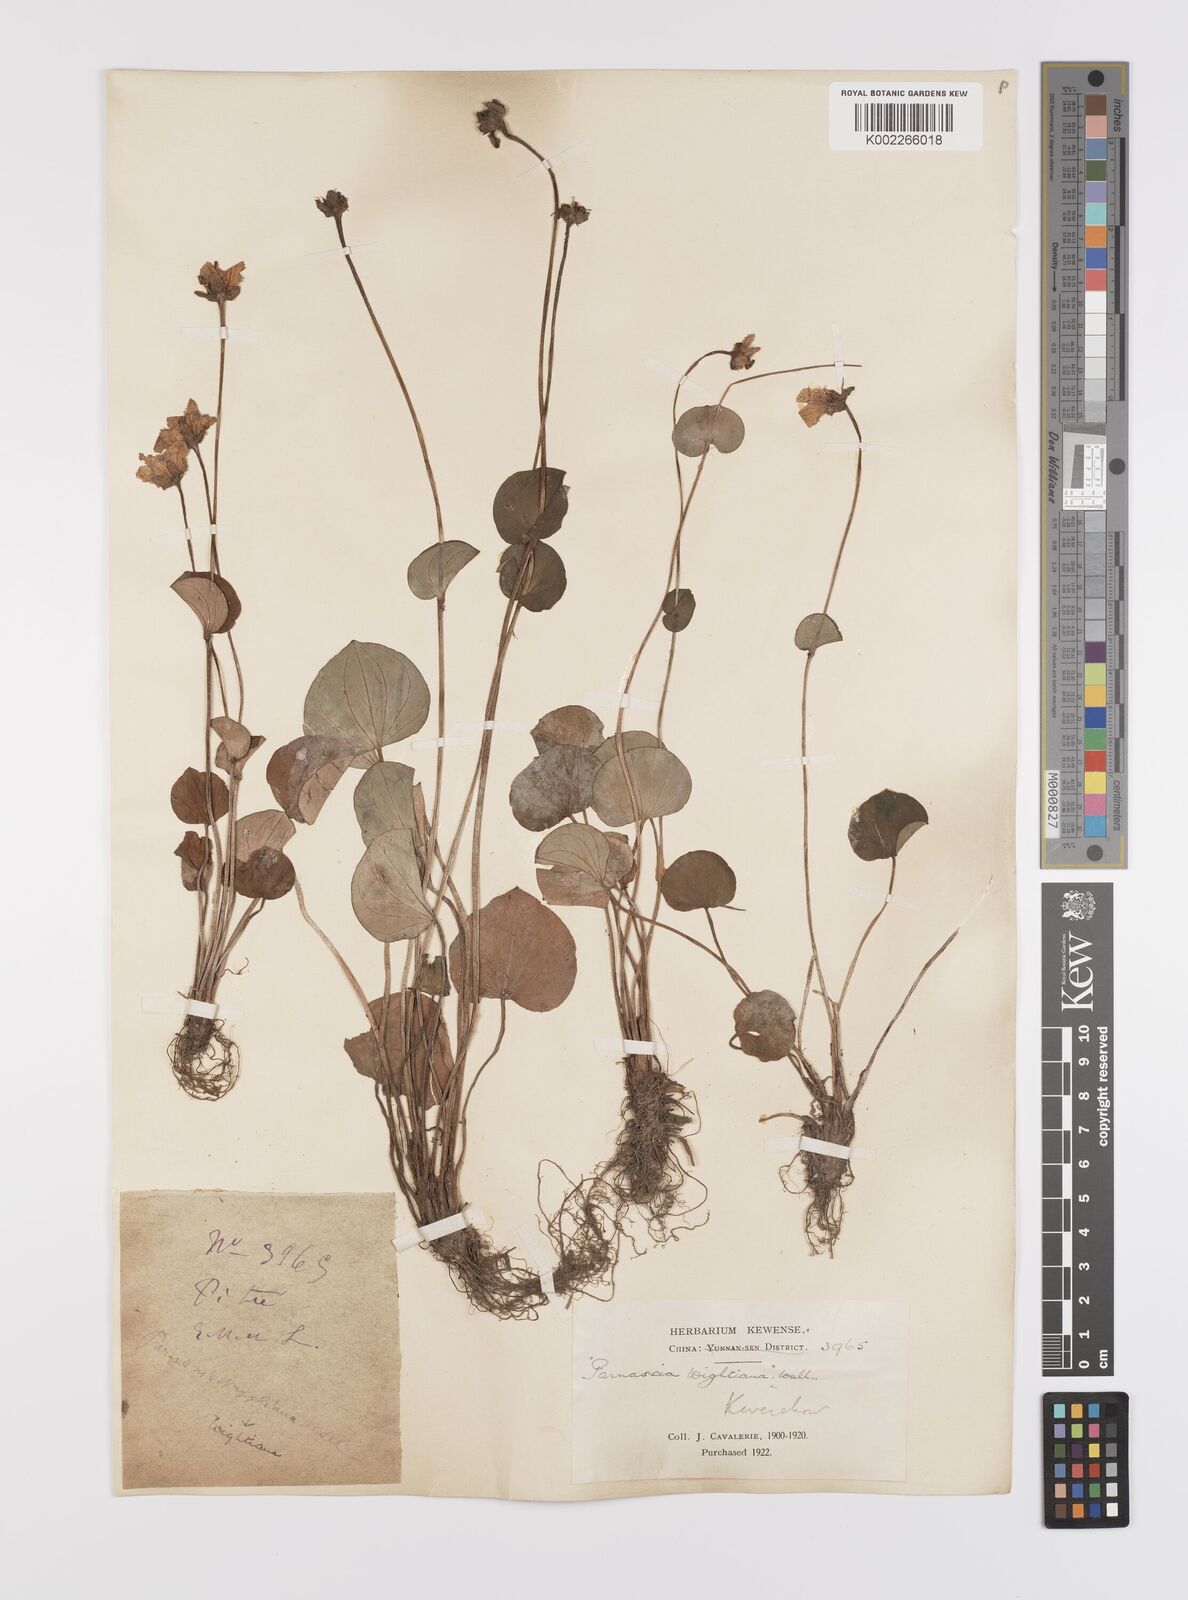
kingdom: Plantae
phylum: Tracheophyta
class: Magnoliopsida
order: Celastrales
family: Parnassiaceae
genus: Parnassia
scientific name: Parnassia wightiana
